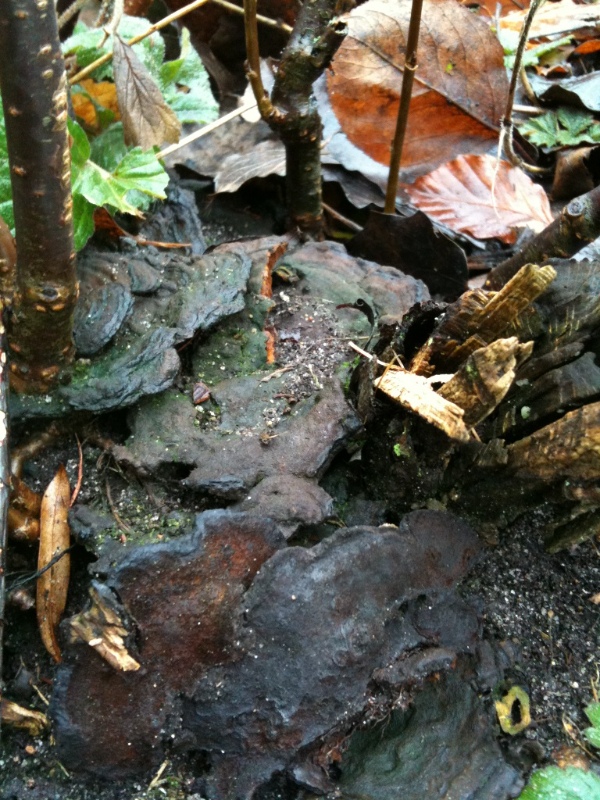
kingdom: Fungi
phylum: Basidiomycota
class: Agaricomycetes
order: Hymenochaetales
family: Hymenochaetaceae
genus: Phylloporia
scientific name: Phylloporia ribis
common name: ribs-ildporesvamp
